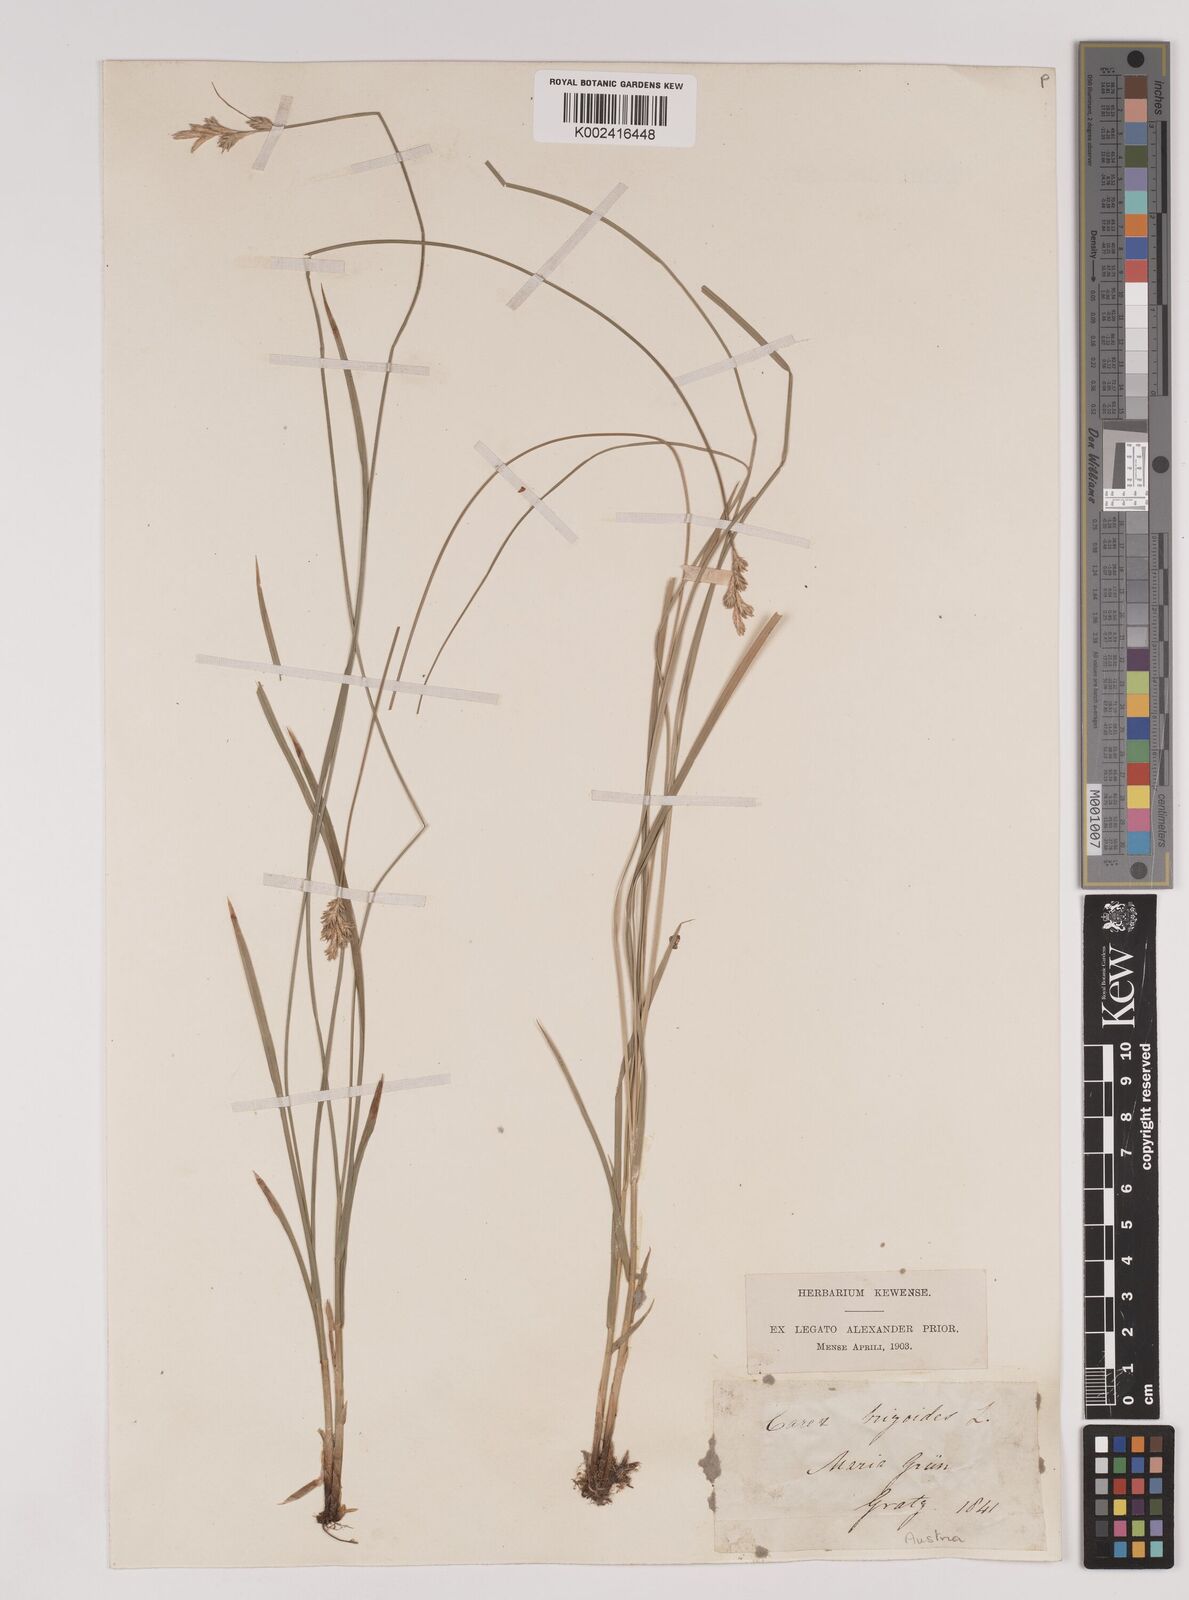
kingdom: Plantae
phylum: Tracheophyta
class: Liliopsida
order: Poales
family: Cyperaceae
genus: Carex
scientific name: Carex brizoides
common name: Quaking-grass sedge
